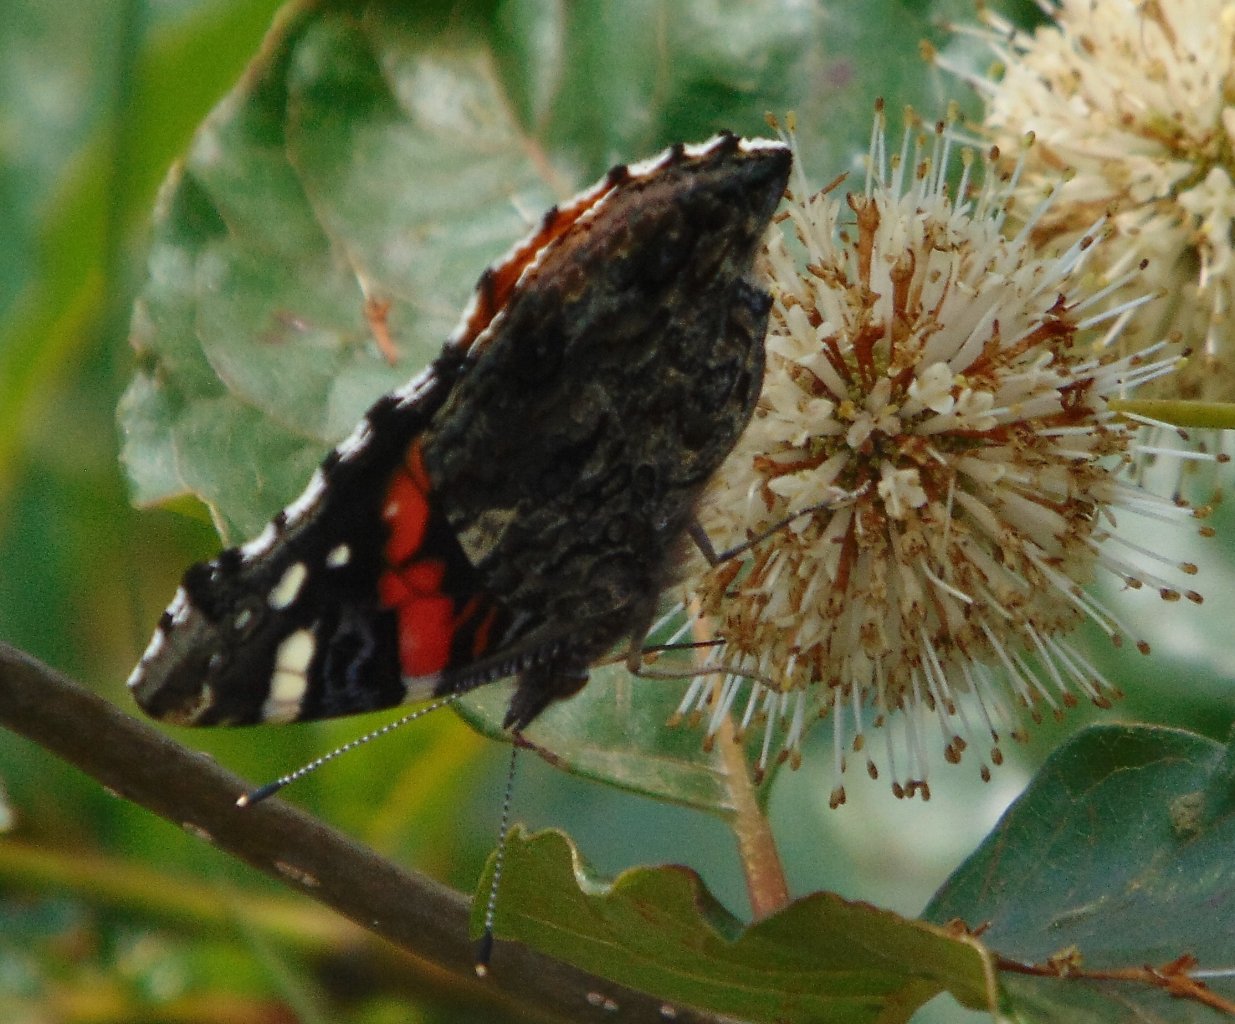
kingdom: Animalia
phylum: Arthropoda
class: Insecta
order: Lepidoptera
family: Nymphalidae
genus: Vanessa
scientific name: Vanessa atalanta
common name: Red Admiral
